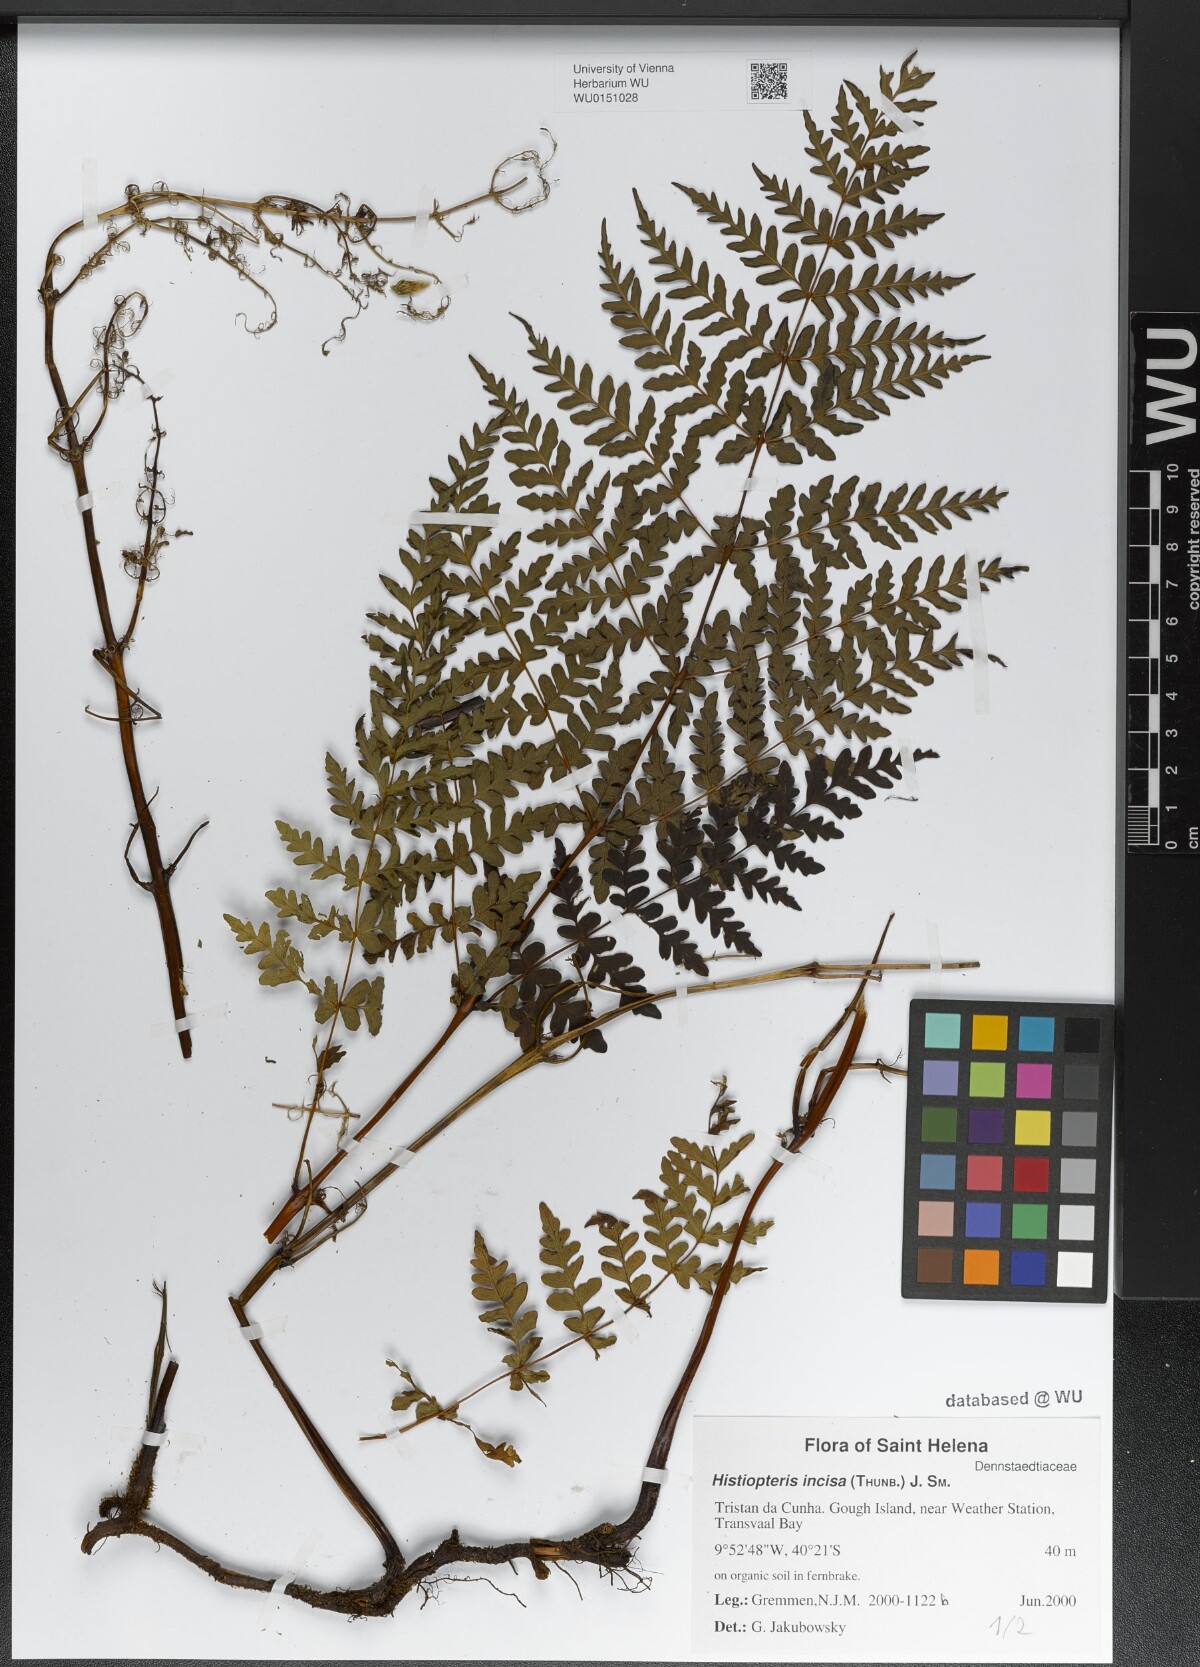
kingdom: Plantae
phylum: Tracheophyta
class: Polypodiopsida
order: Polypodiales
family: Dennstaedtiaceae
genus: Histiopteris
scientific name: Histiopteris incisa
